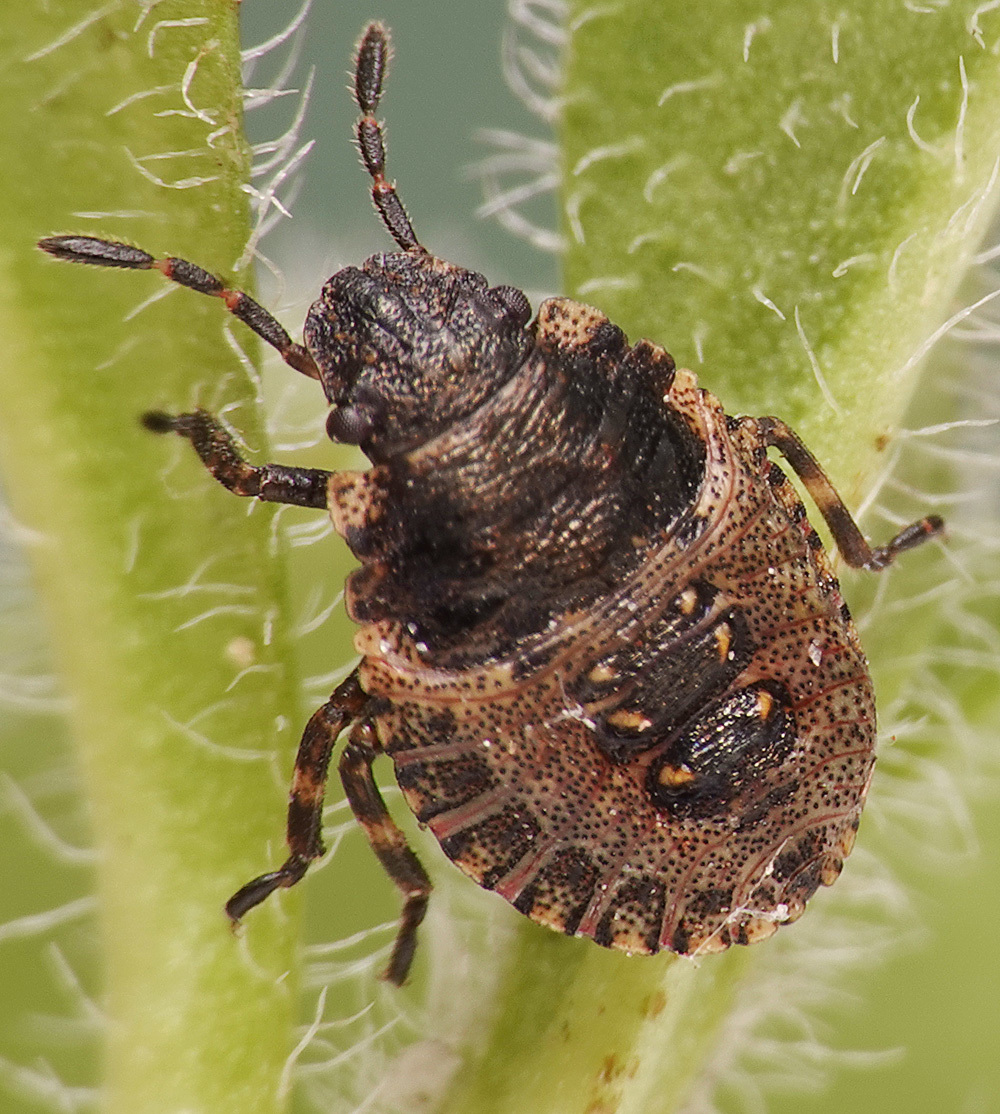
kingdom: Animalia
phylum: Arthropoda
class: Insecta
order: Hemiptera
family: Pentatomidae
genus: Pentatoma
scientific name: Pentatoma rufipes
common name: Forest bug
